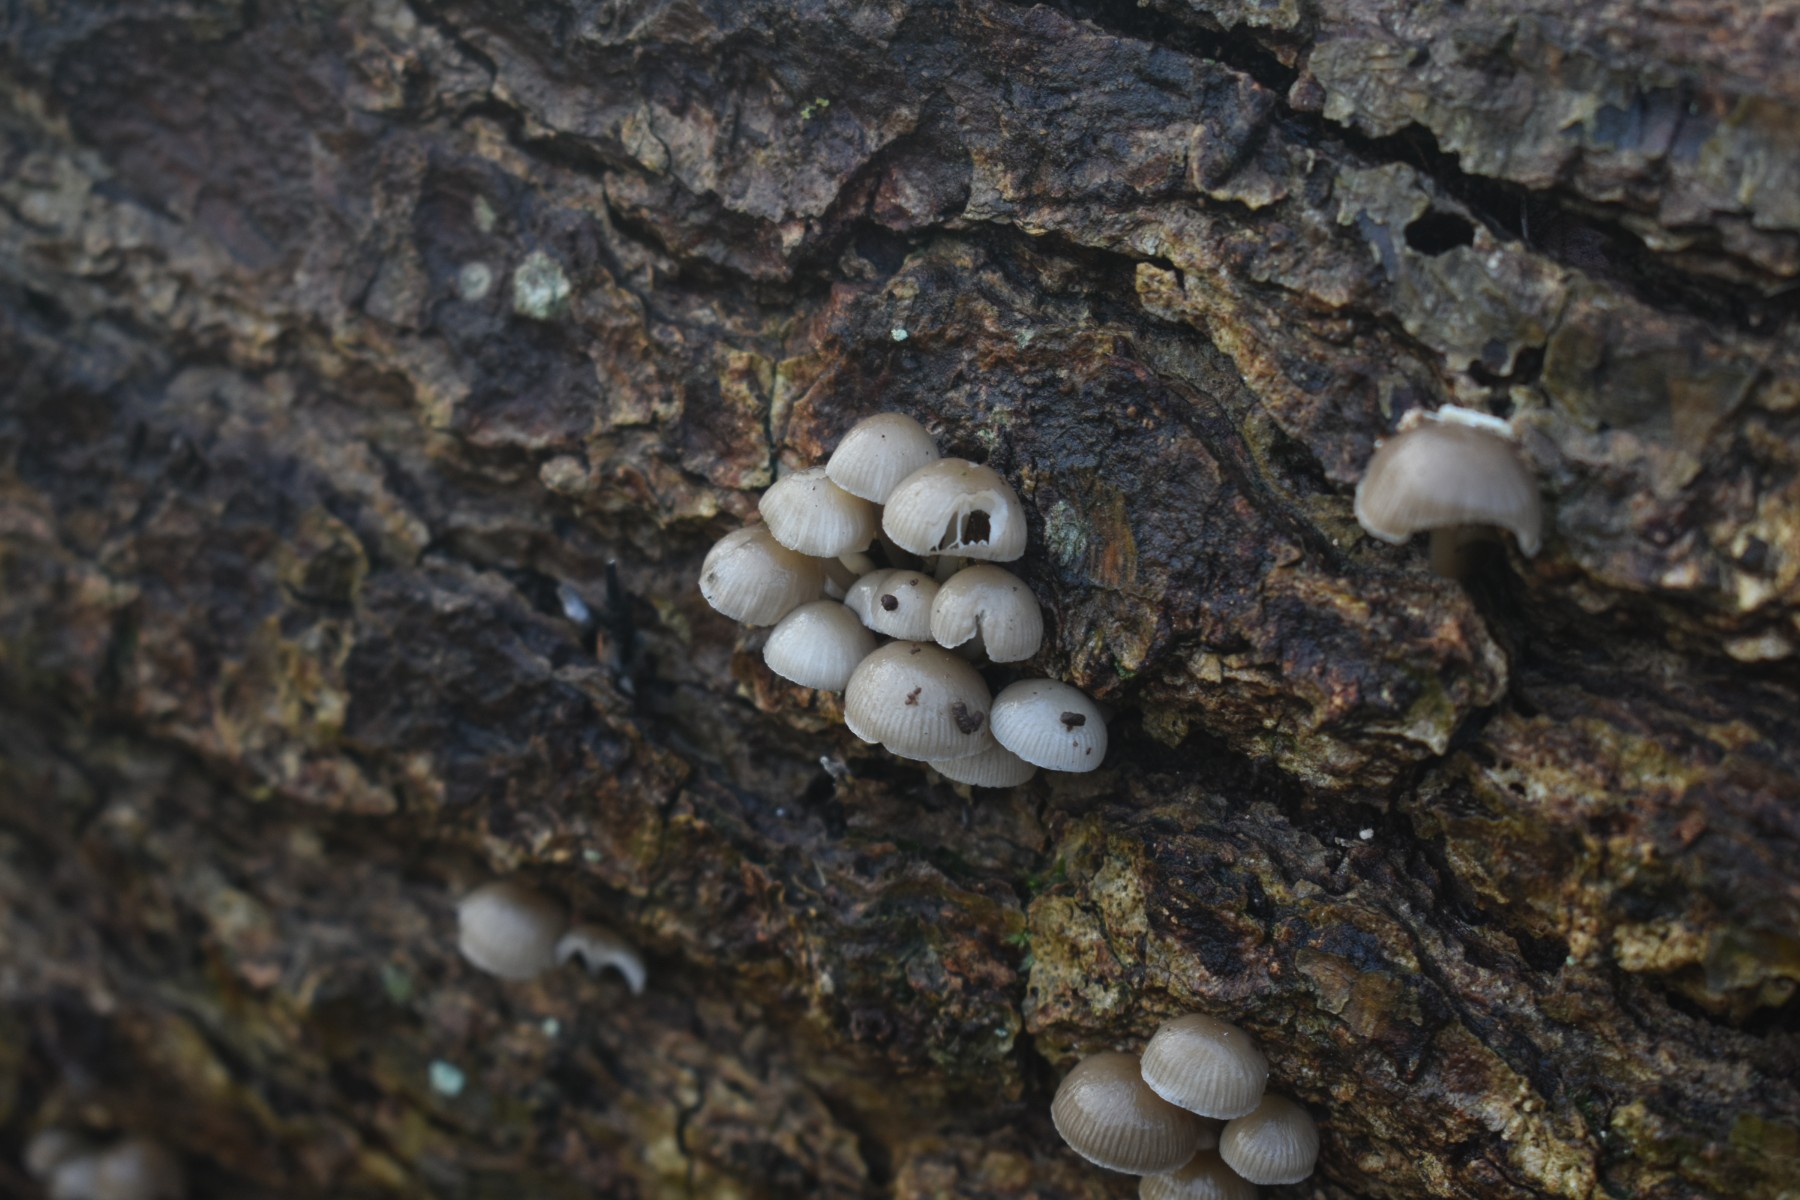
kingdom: Fungi
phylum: Basidiomycota
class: Agaricomycetes
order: Agaricales
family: Mycenaceae
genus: Mycena
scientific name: Mycena tintinnabulum
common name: vinter-huesvamp
